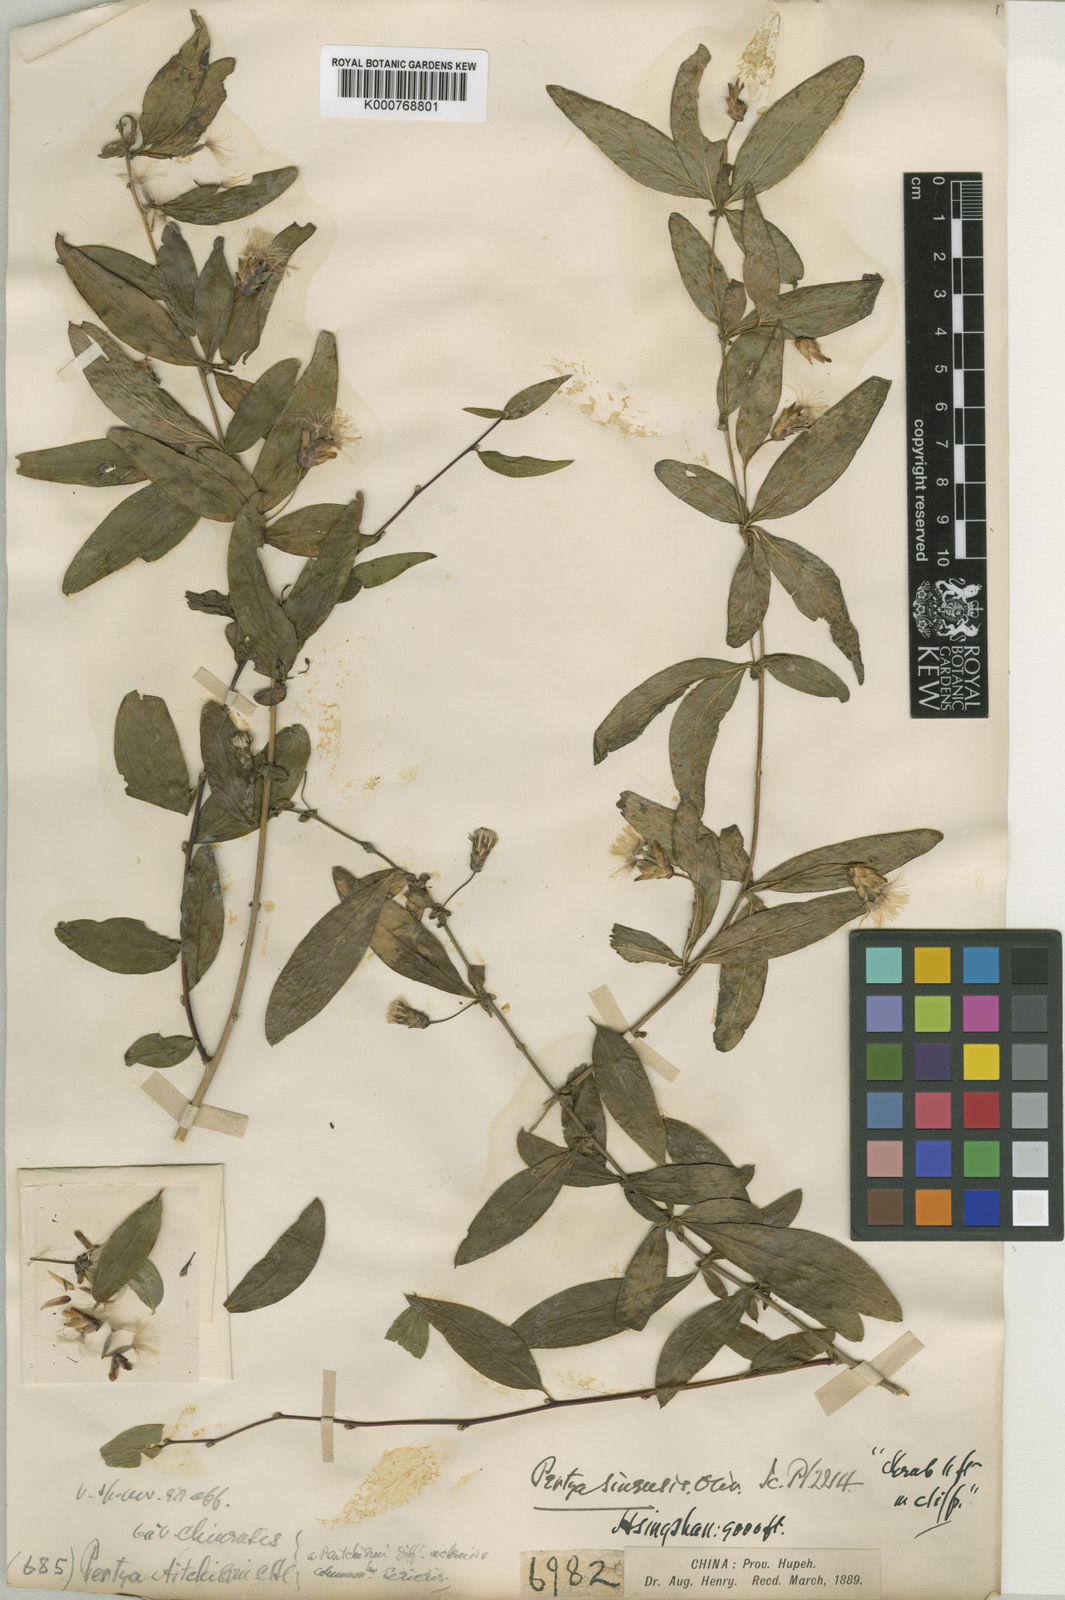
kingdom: Plantae
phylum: Tracheophyta
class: Magnoliopsida
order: Asterales
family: Asteraceae
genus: Pertya
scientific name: Pertya sinensis
